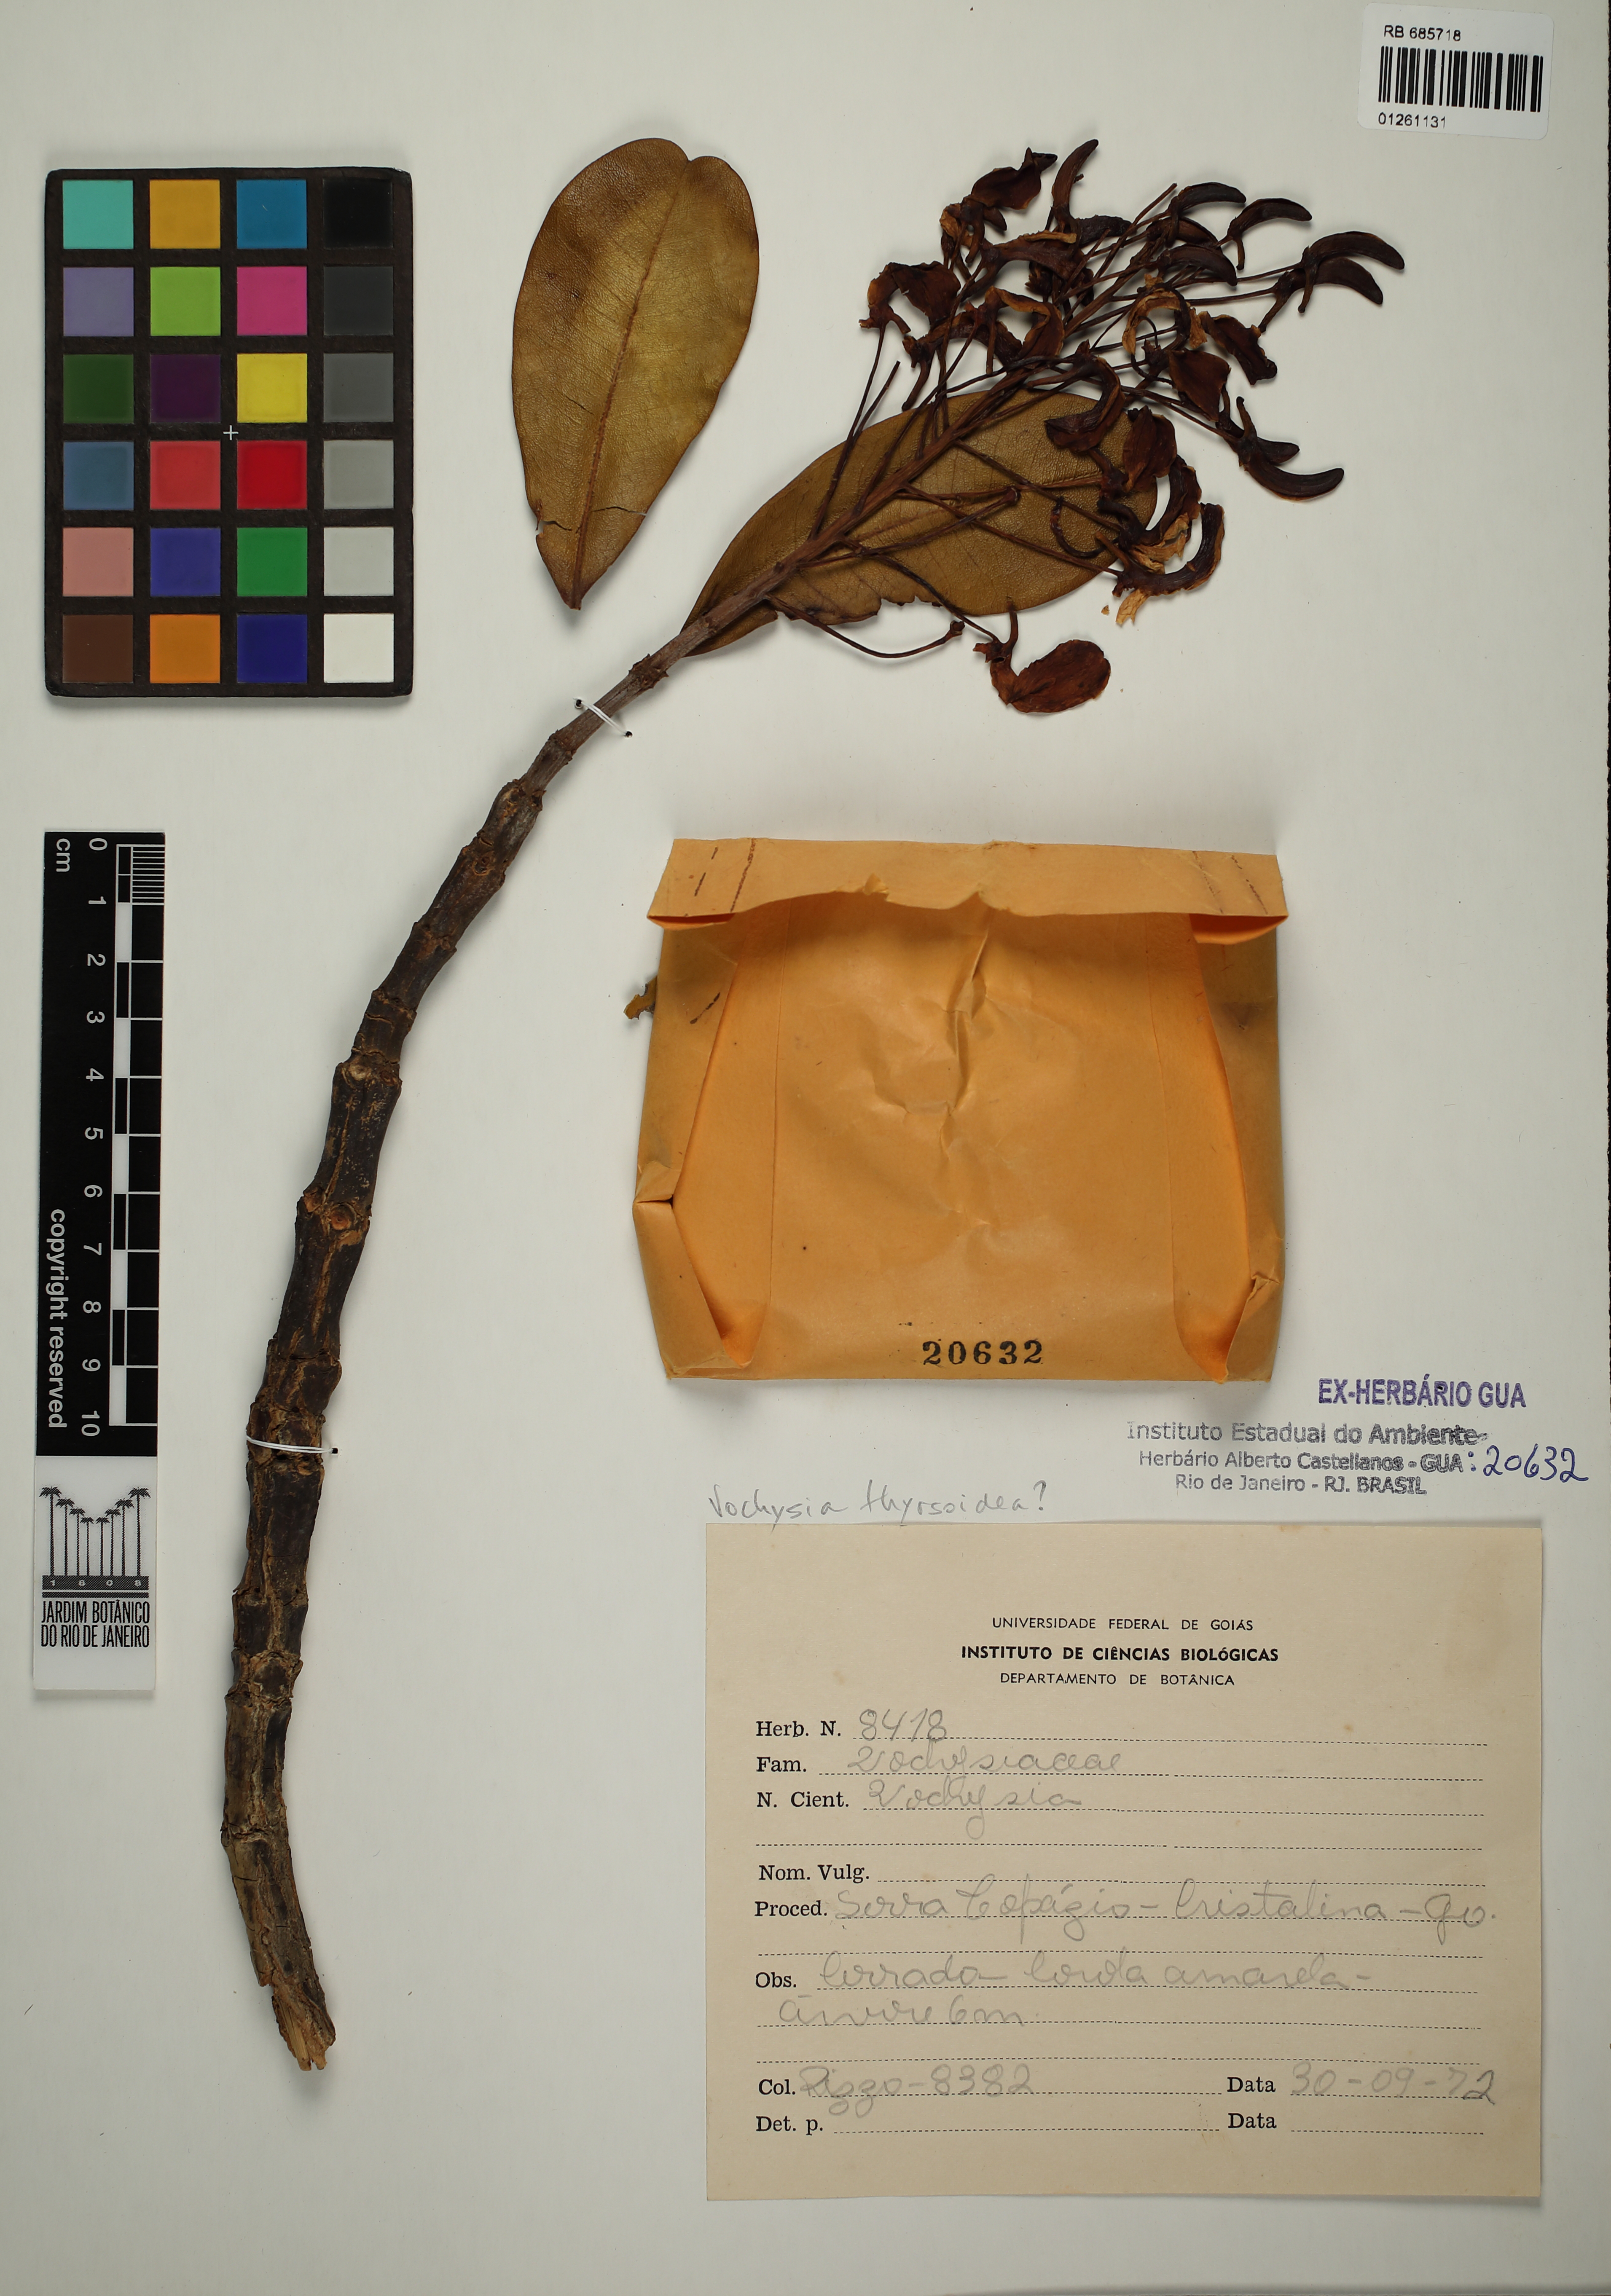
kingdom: Plantae
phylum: Tracheophyta
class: Magnoliopsida
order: Myrtales
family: Vochysiaceae
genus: Vochysia
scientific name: Vochysia thyrsoidea
